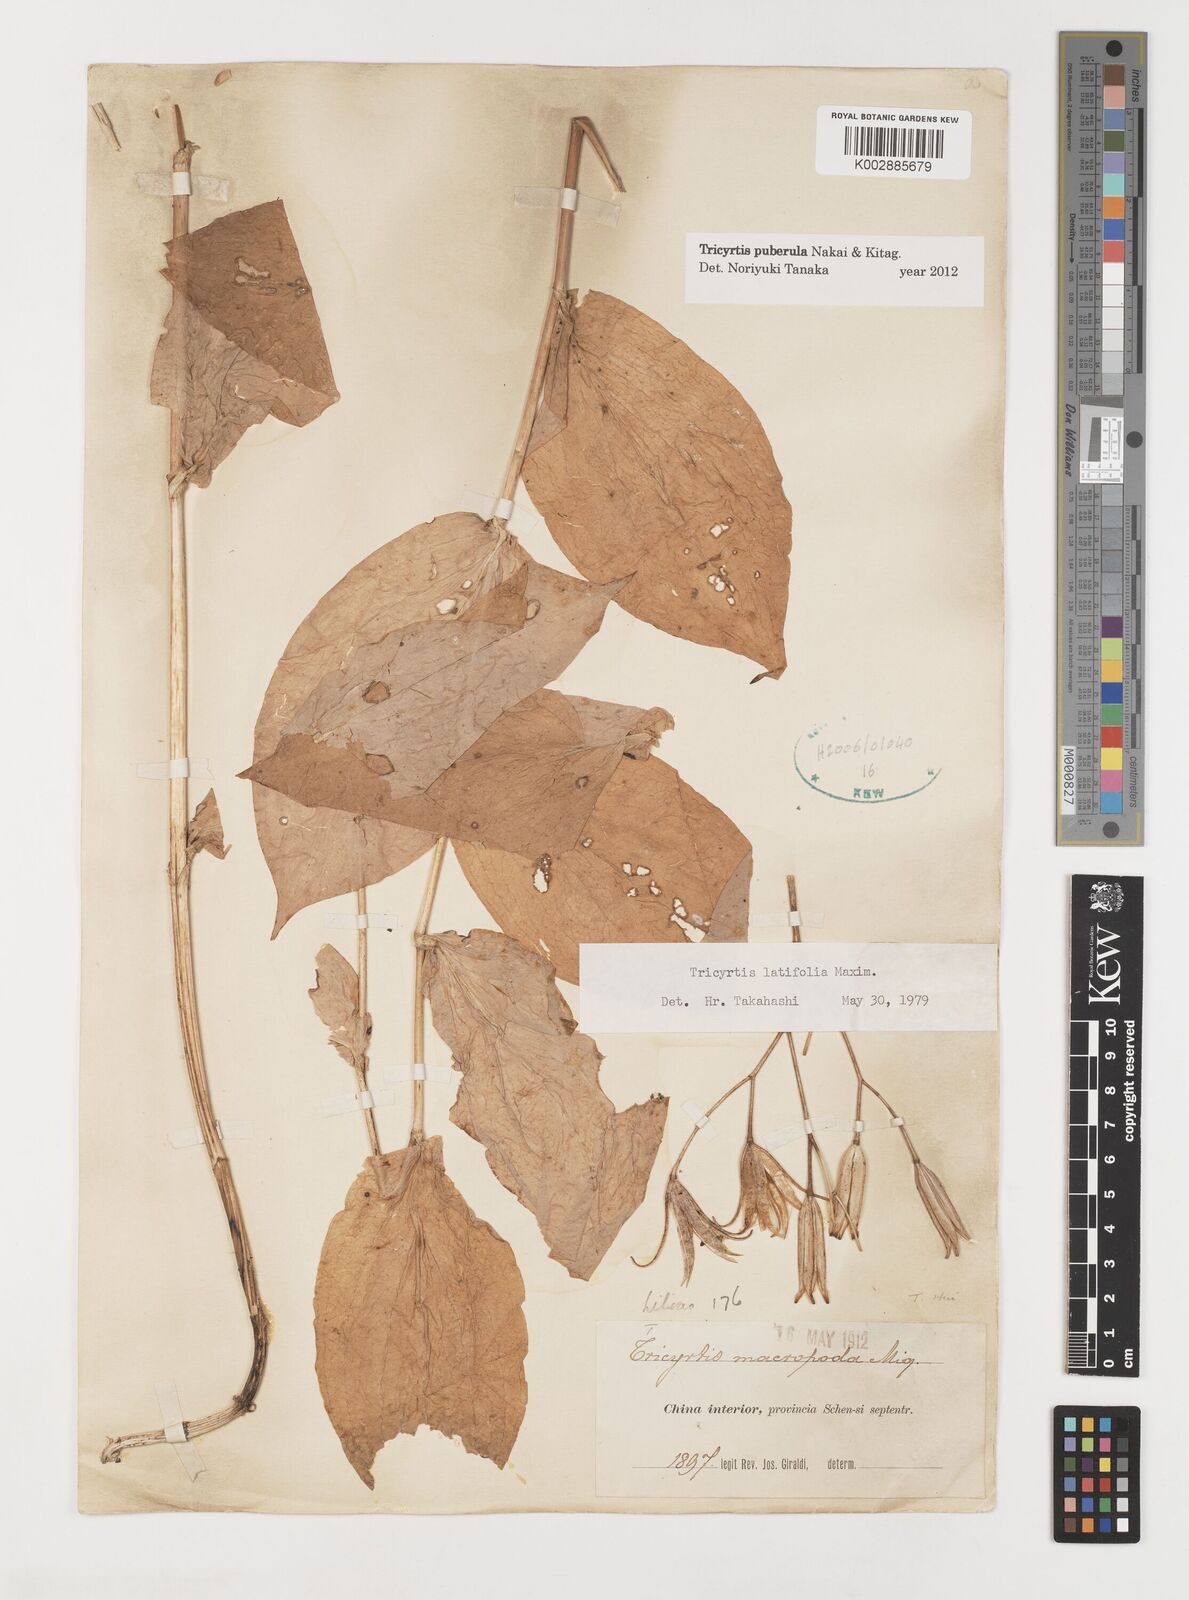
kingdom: Plantae
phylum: Tracheophyta
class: Liliopsida
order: Liliales
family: Liliaceae
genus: Tricyrtis
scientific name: Tricyrtis puberula
